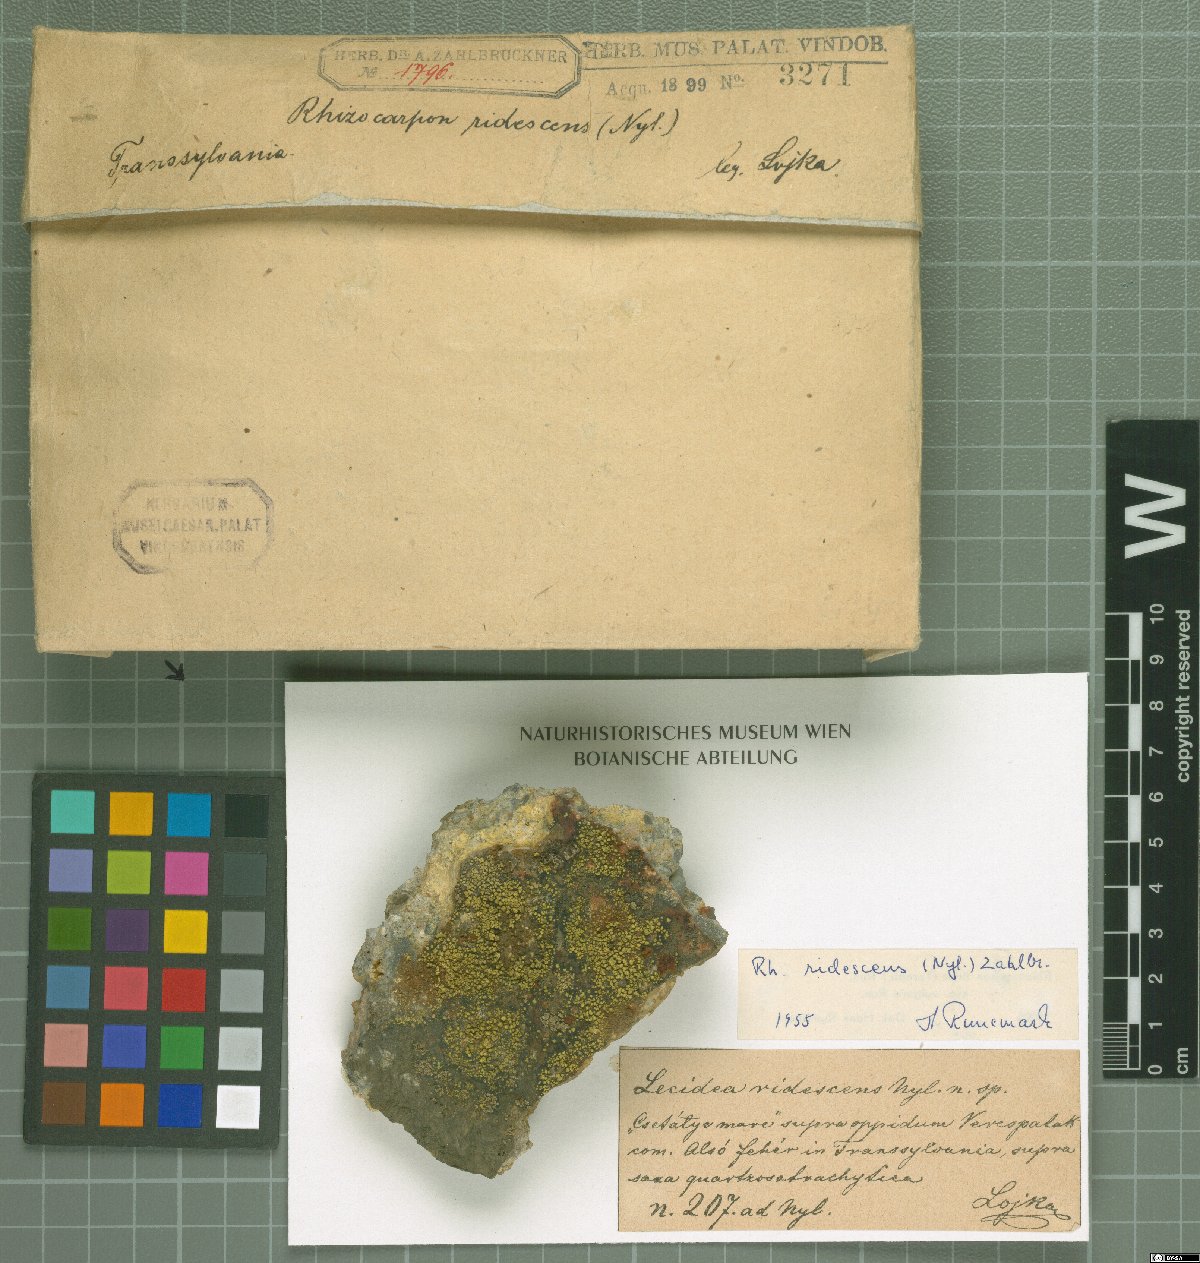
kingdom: Fungi
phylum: Ascomycota
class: Lecanoromycetes
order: Rhizocarpales
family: Rhizocarpaceae
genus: Rhizocarpon
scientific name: Rhizocarpon ridescens
